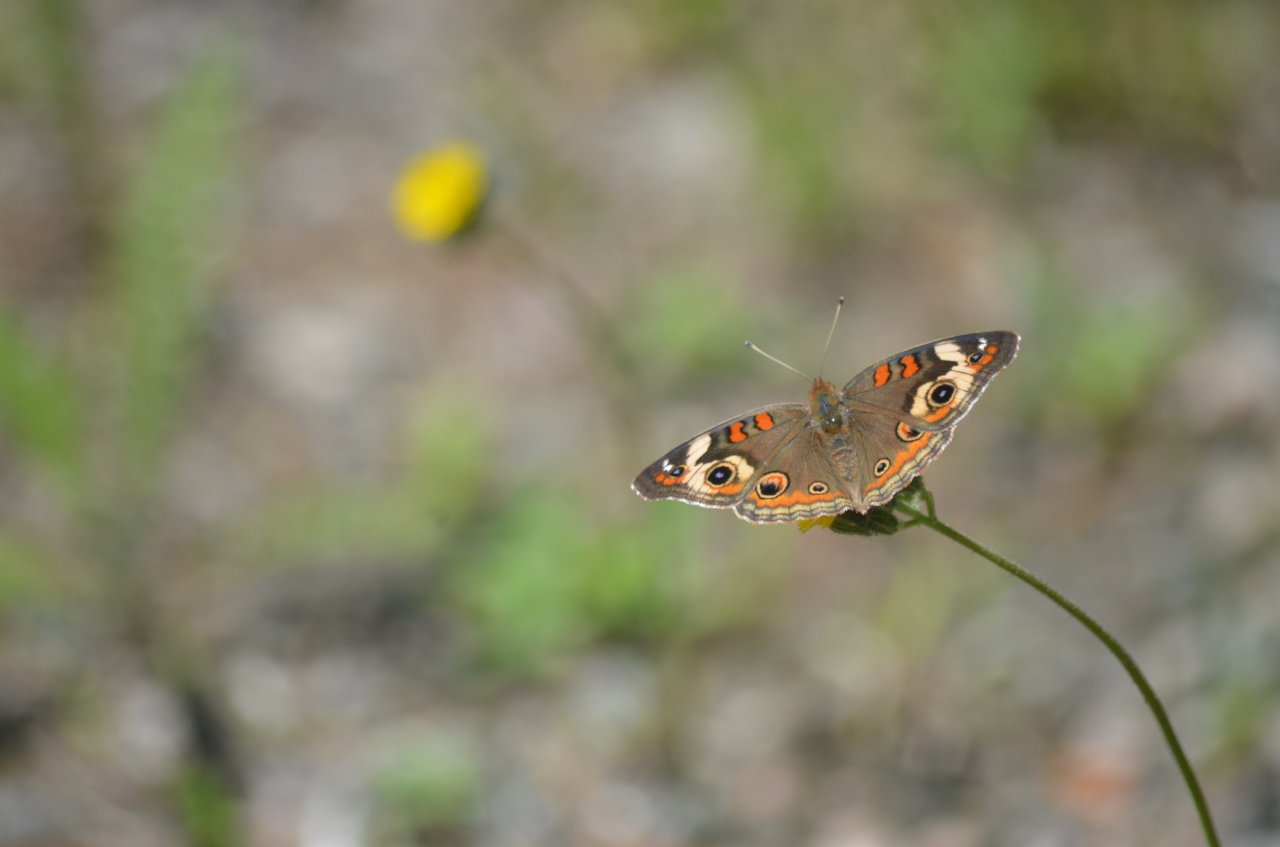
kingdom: Animalia
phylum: Arthropoda
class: Insecta
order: Lepidoptera
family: Nymphalidae
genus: Junonia
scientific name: Junonia coenia
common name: Common Buckeye
